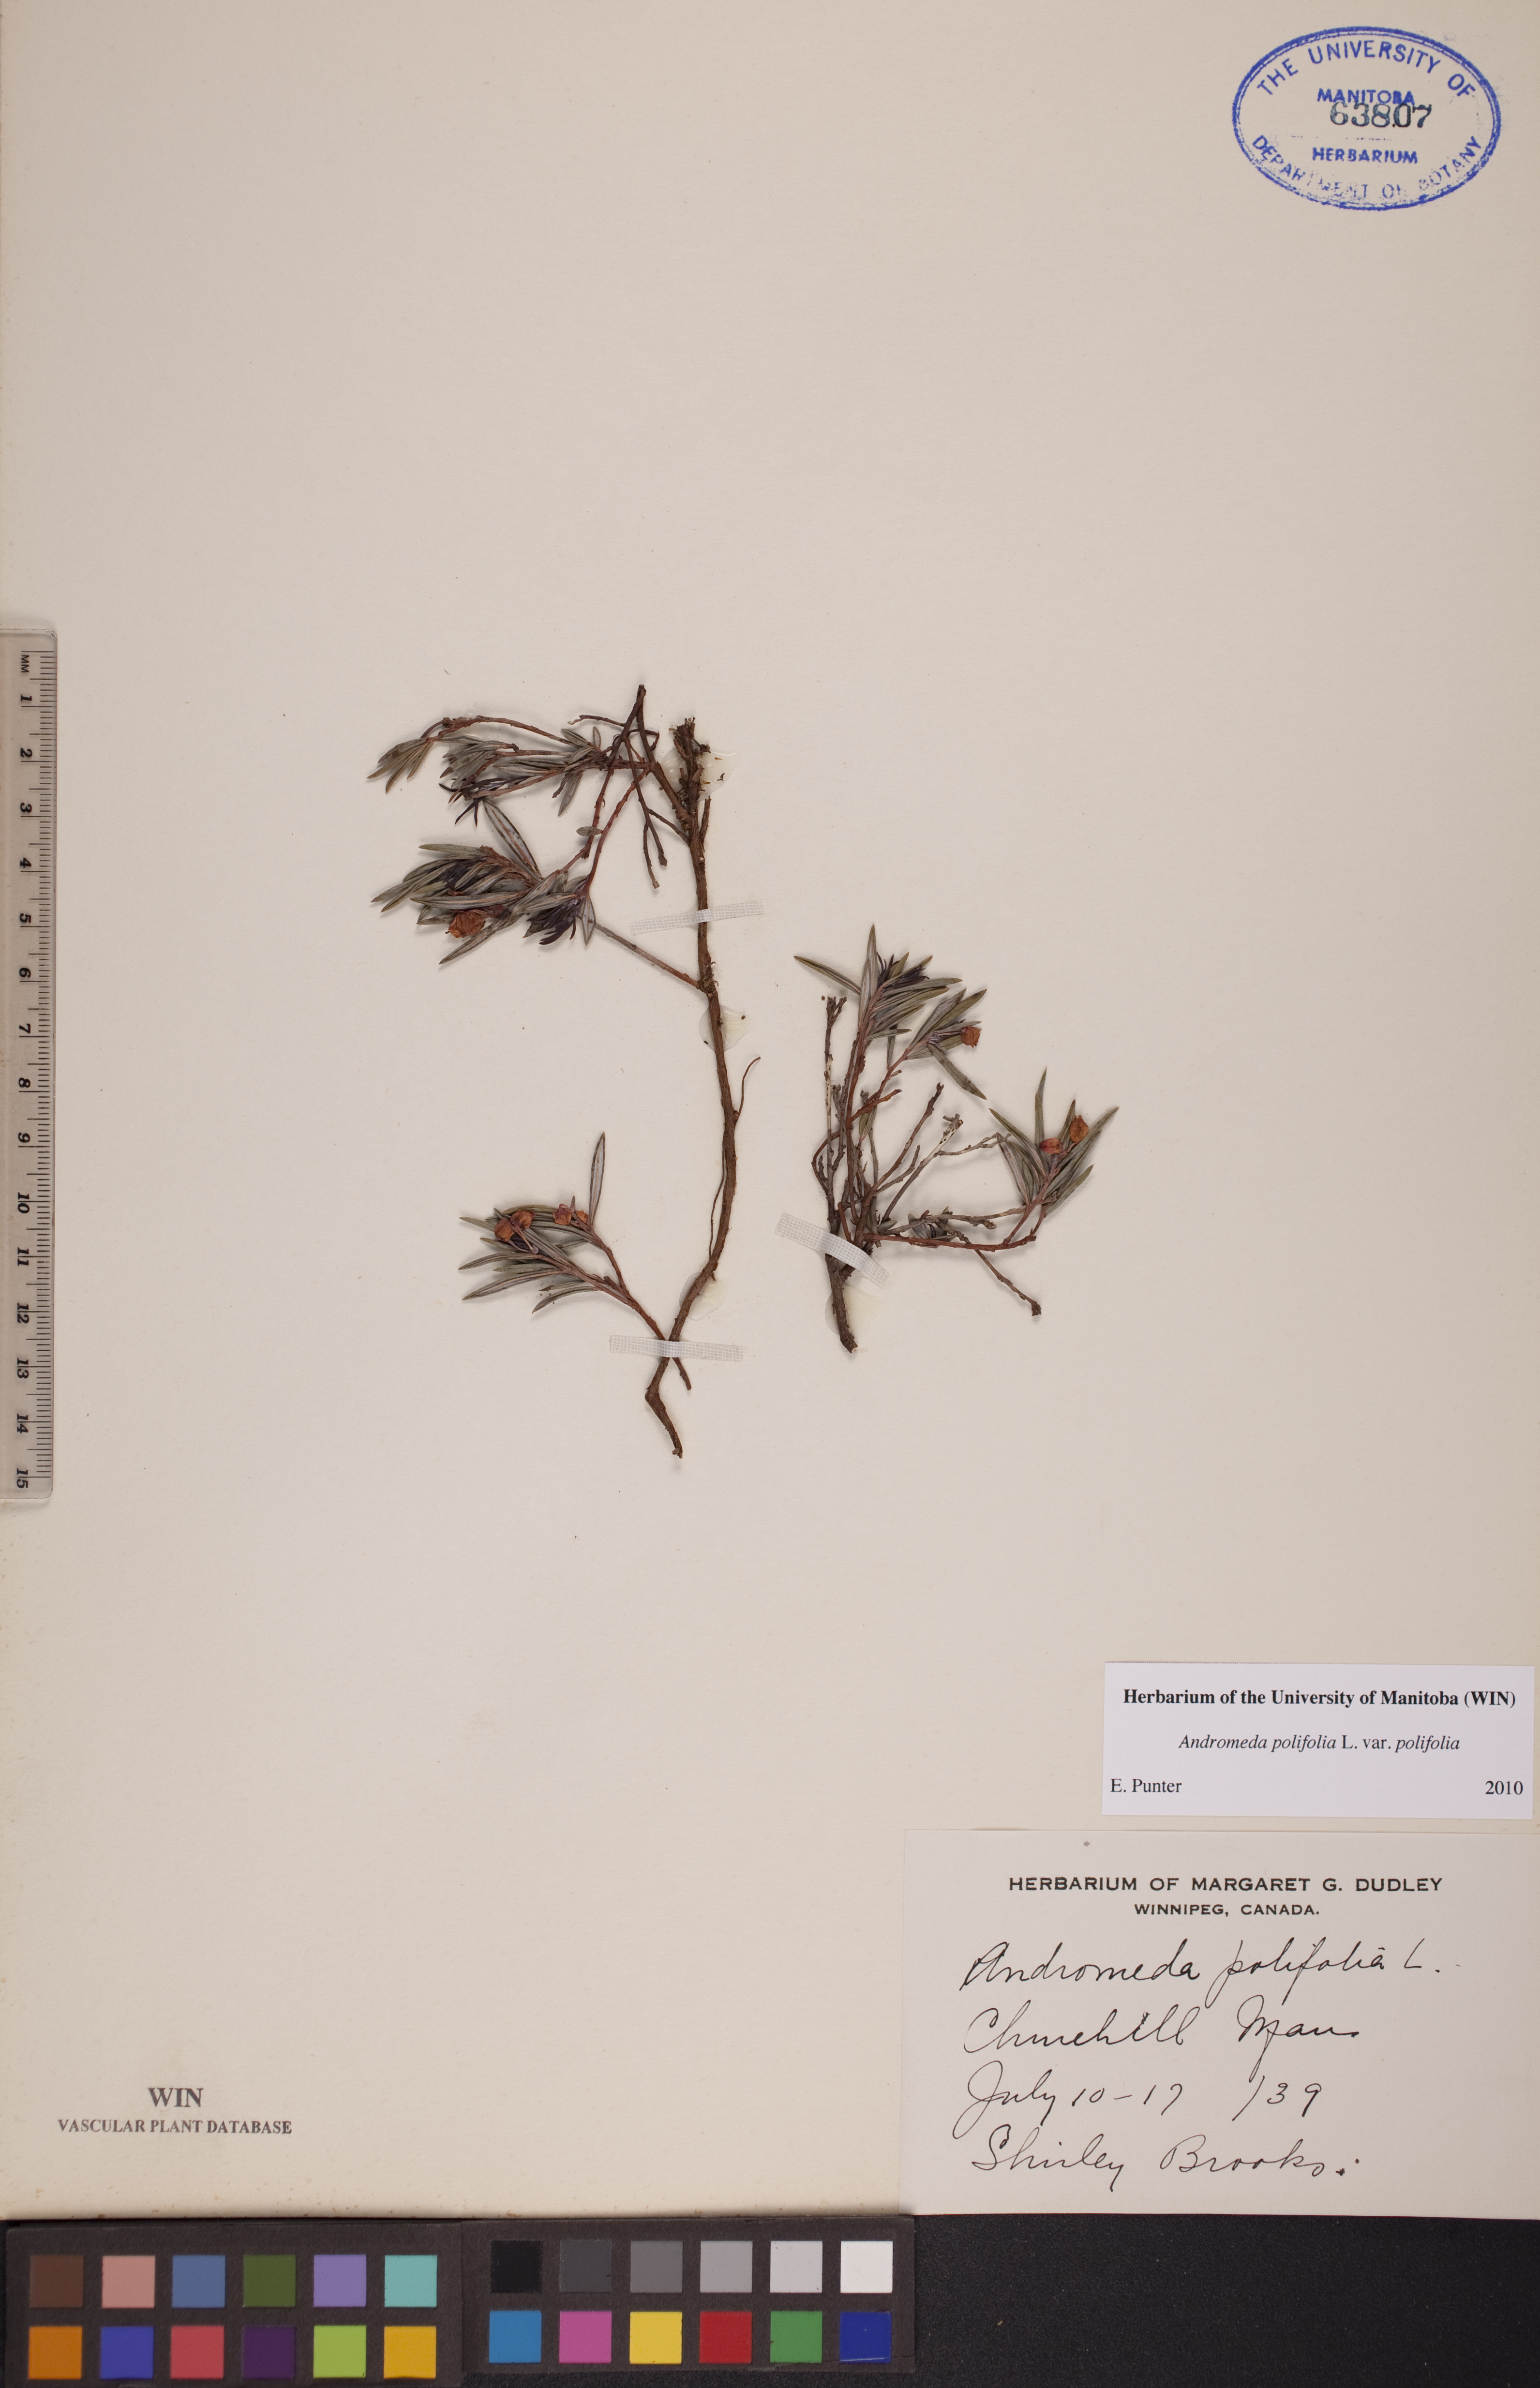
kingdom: Plantae
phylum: Tracheophyta
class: Magnoliopsida
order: Ericales
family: Ericaceae
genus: Andromeda
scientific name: Andromeda polifolia
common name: Bog-rosemary
